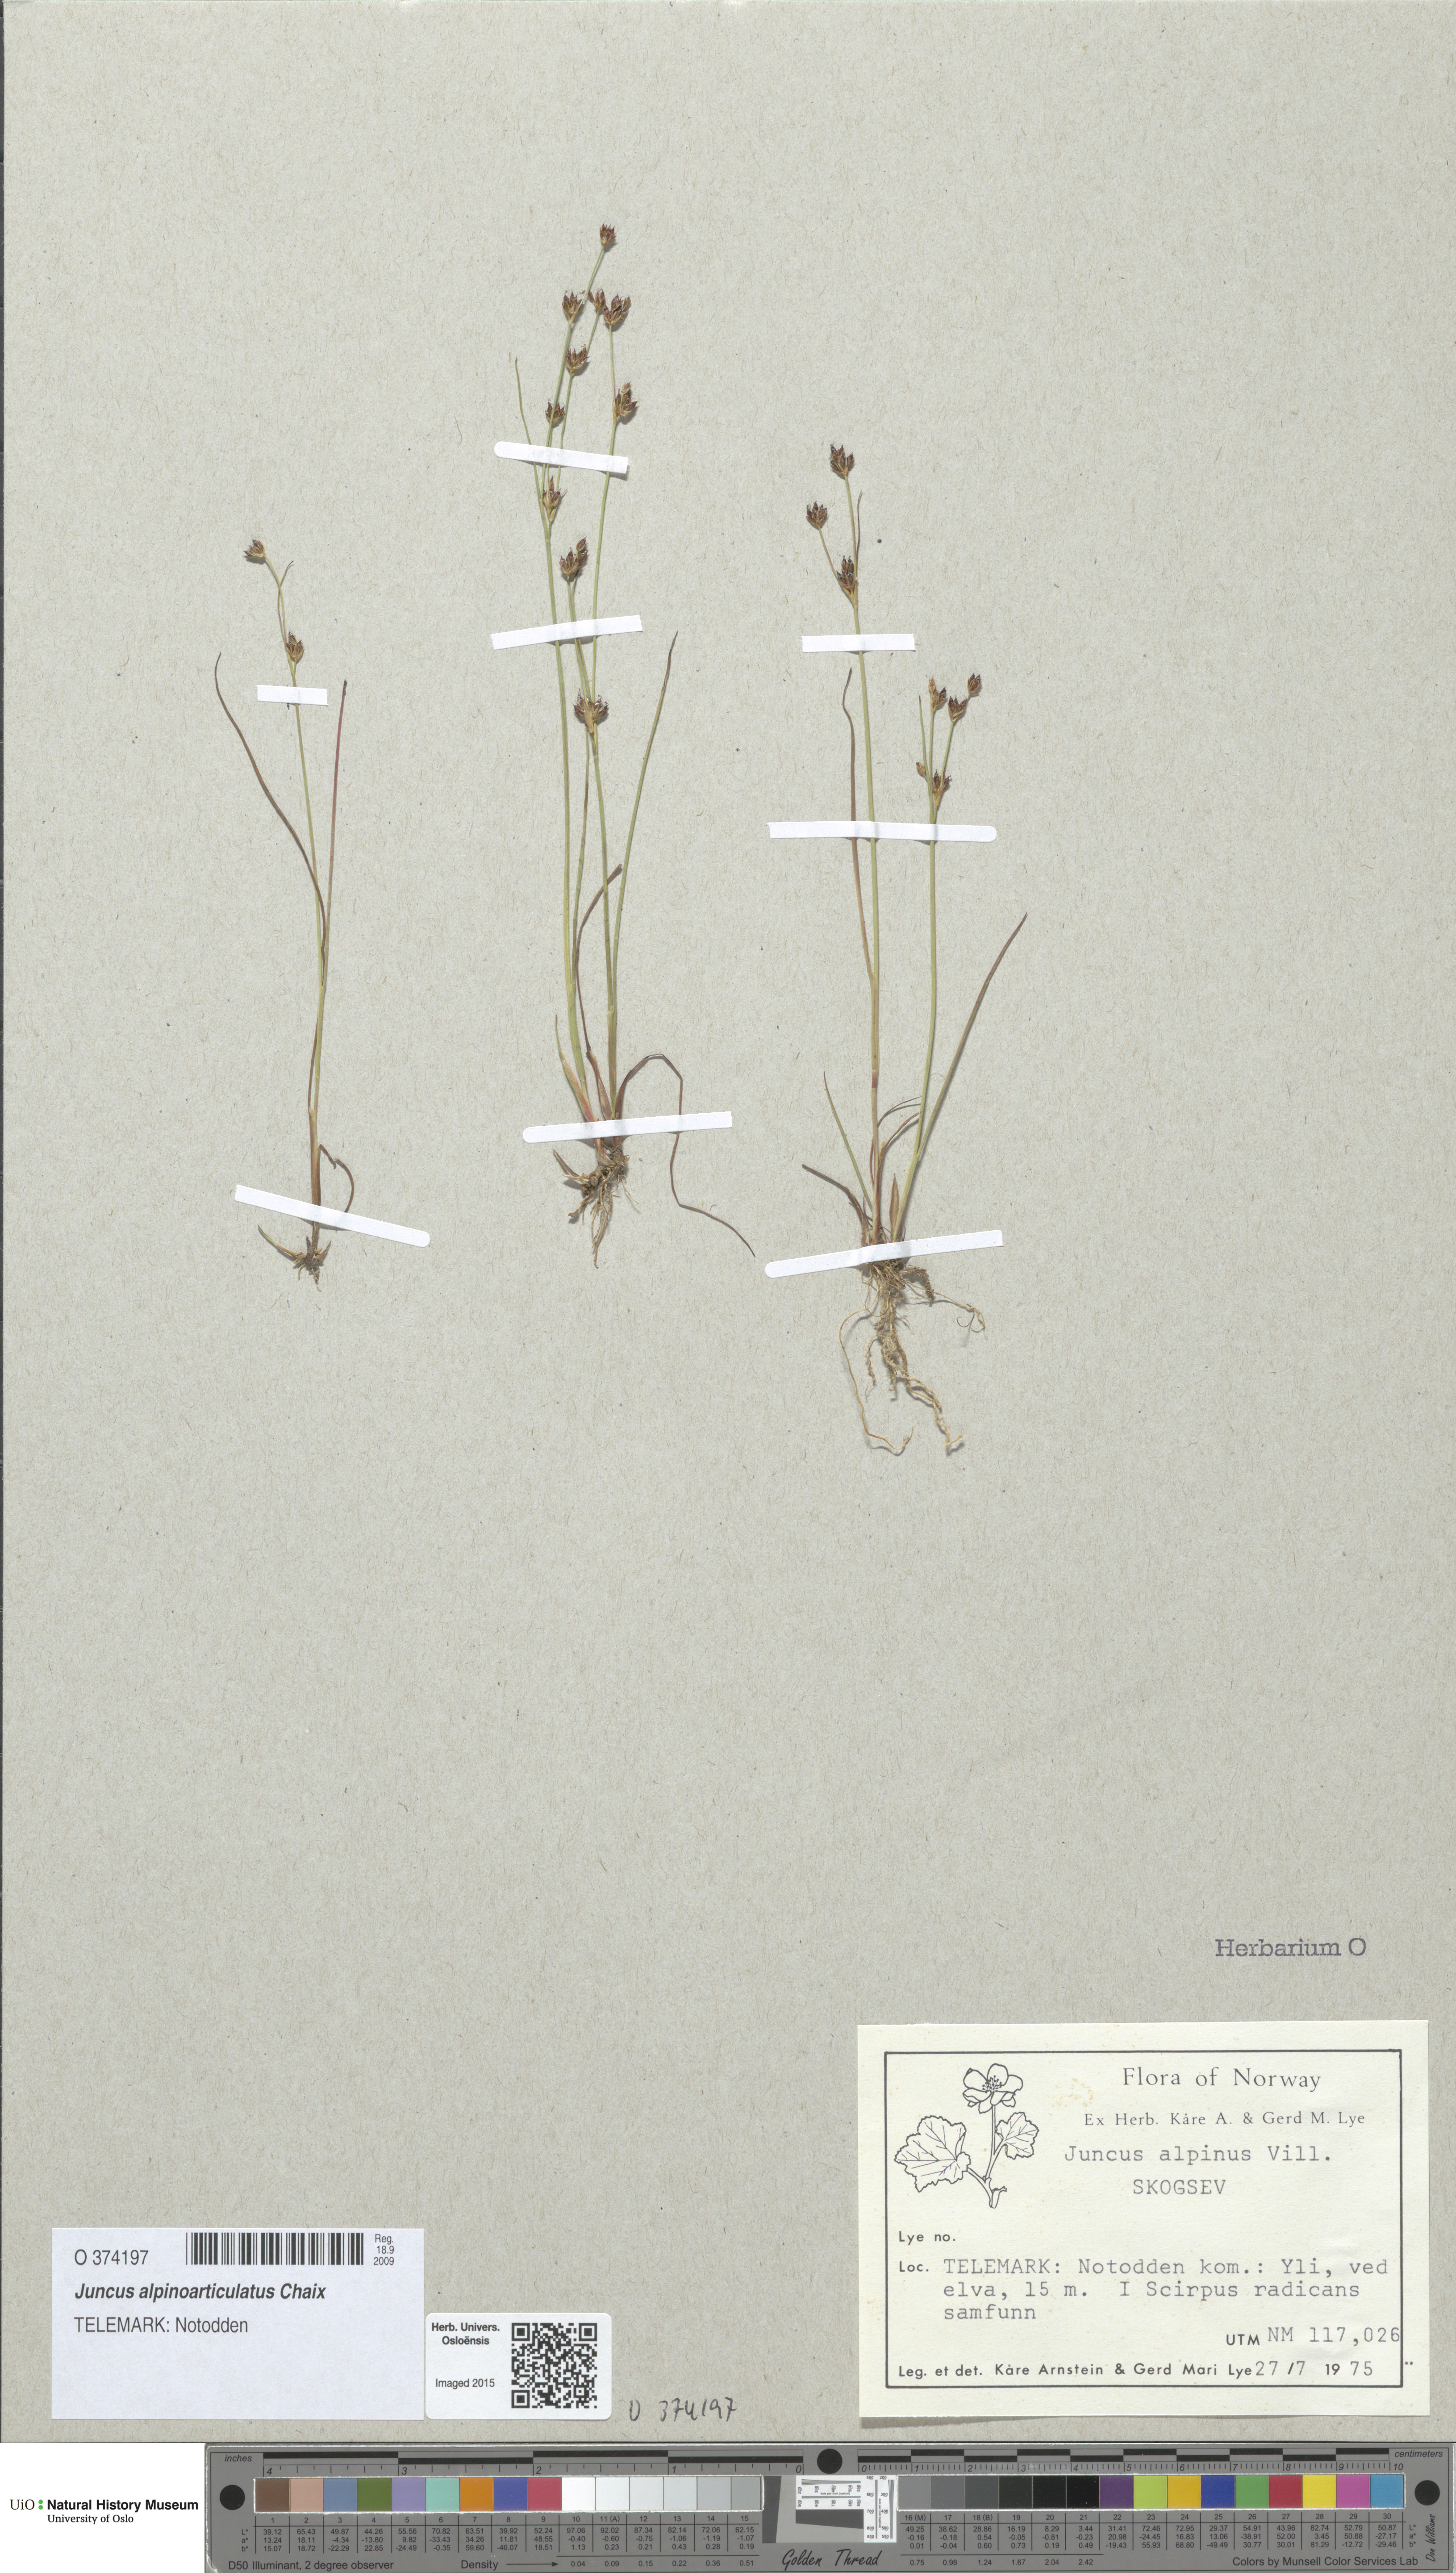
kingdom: Plantae
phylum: Tracheophyta
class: Liliopsida
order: Poales
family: Juncaceae
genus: Juncus
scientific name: Juncus alpinoarticulatus
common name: Alpine rush
